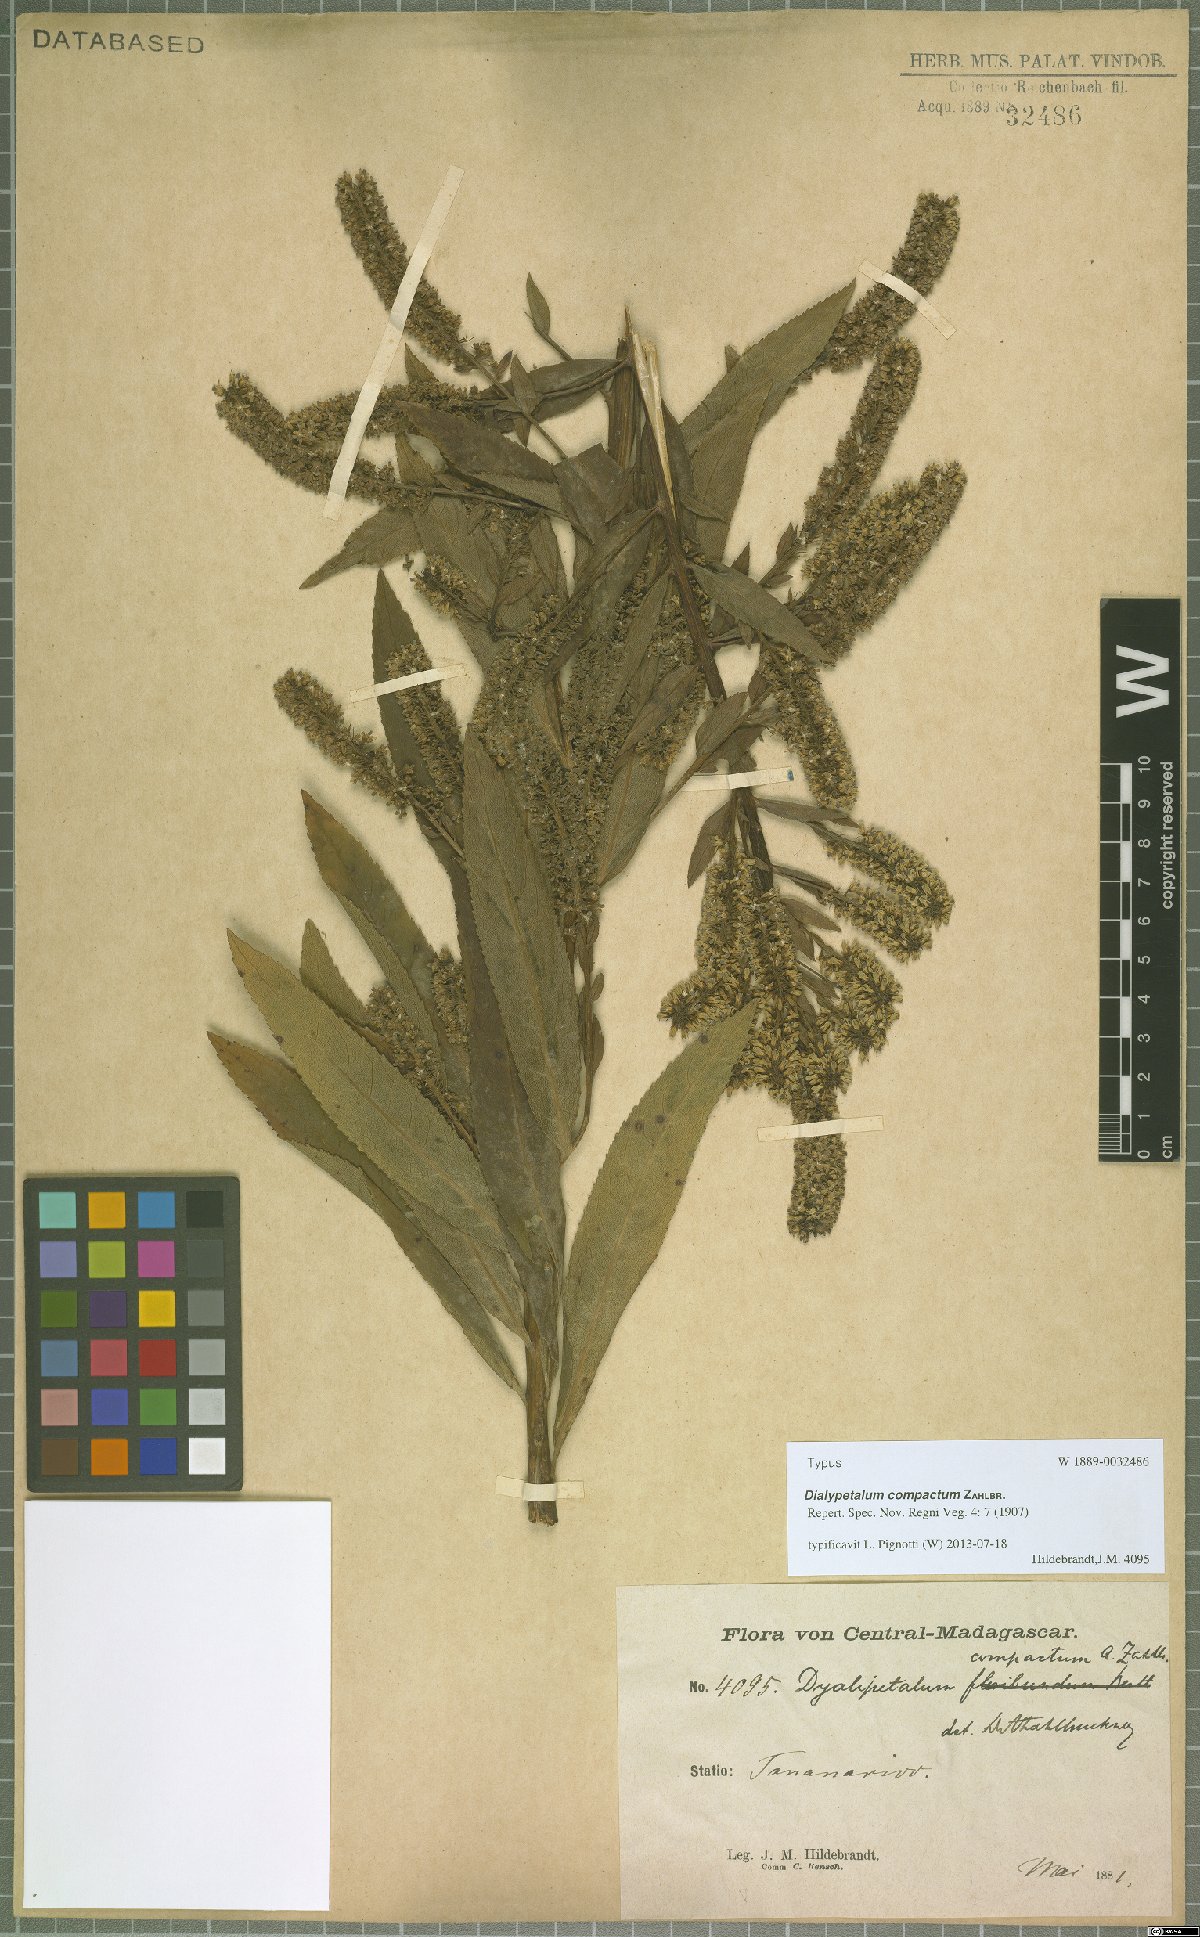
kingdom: Plantae
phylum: Tracheophyta
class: Magnoliopsida
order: Asterales
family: Campanulaceae
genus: Dialypetalum
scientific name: Dialypetalum compactum
